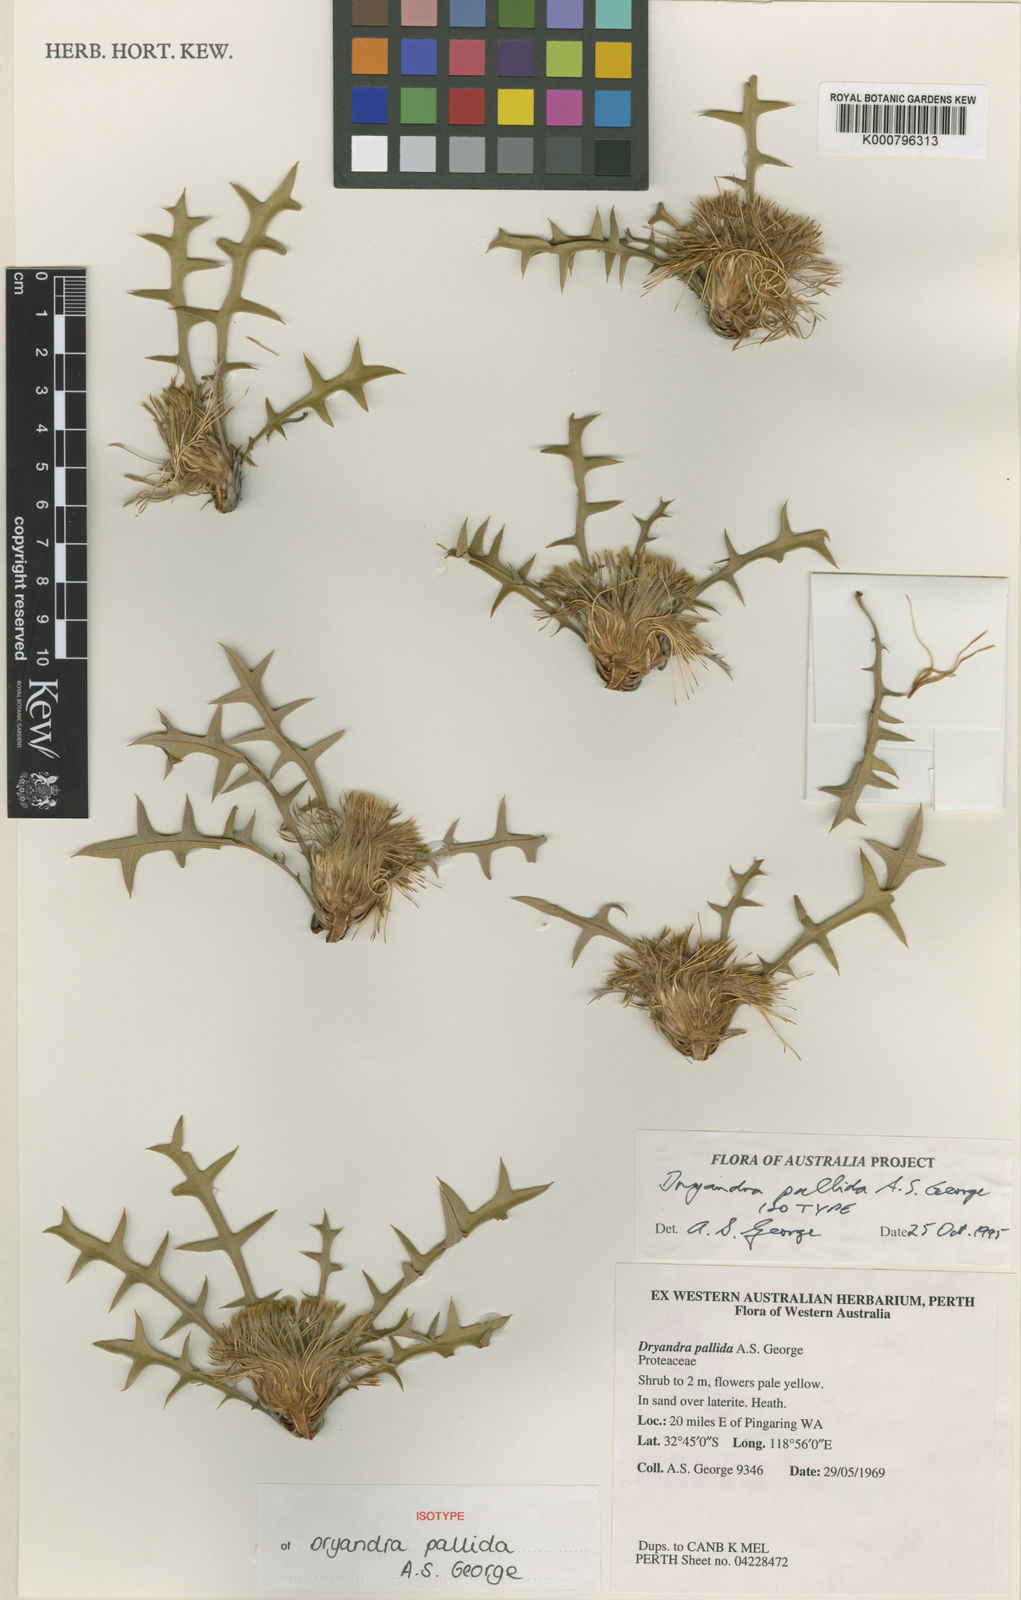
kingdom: Plantae
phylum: Tracheophyta
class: Magnoliopsida
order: Proteales
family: Proteaceae
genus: Banksia
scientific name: Banksia pallida
